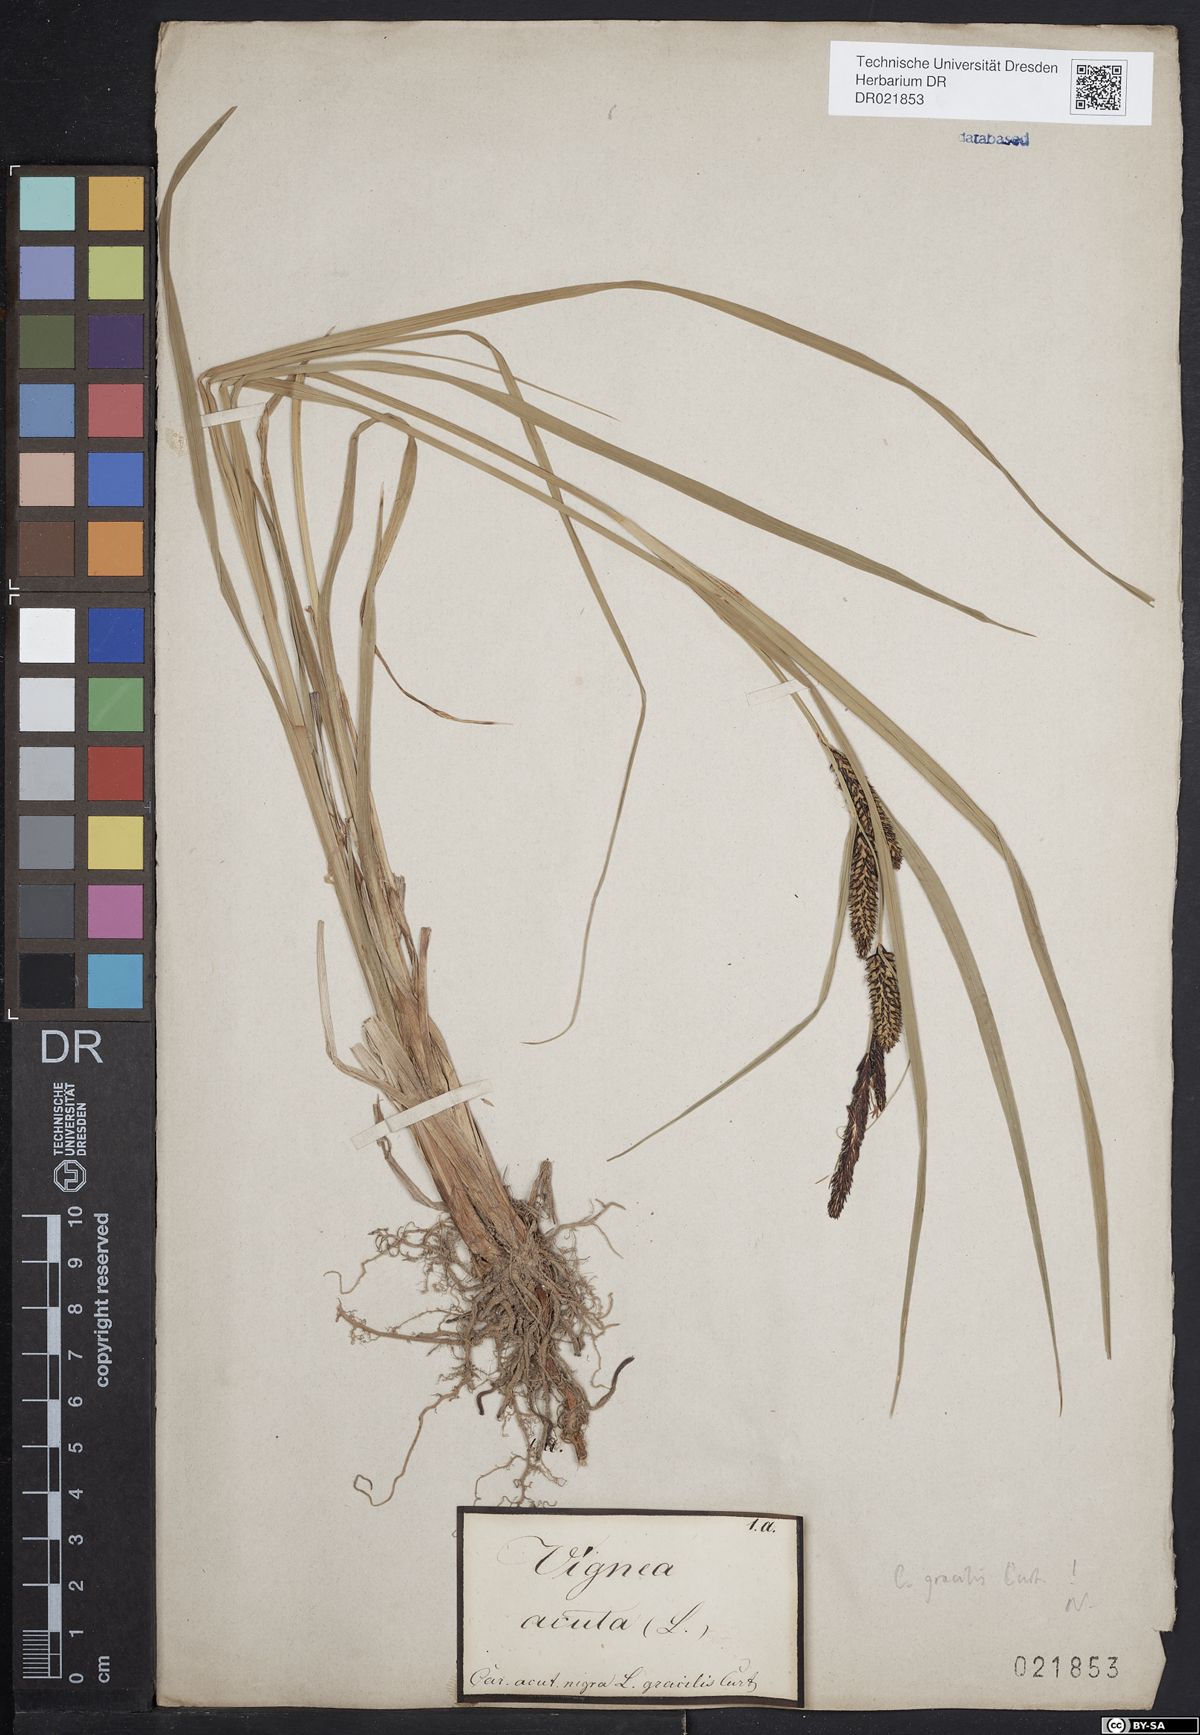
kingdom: Plantae
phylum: Tracheophyta
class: Liliopsida
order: Poales
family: Cyperaceae
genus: Carex
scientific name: Carex acuta
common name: Slender tufted-sedge
